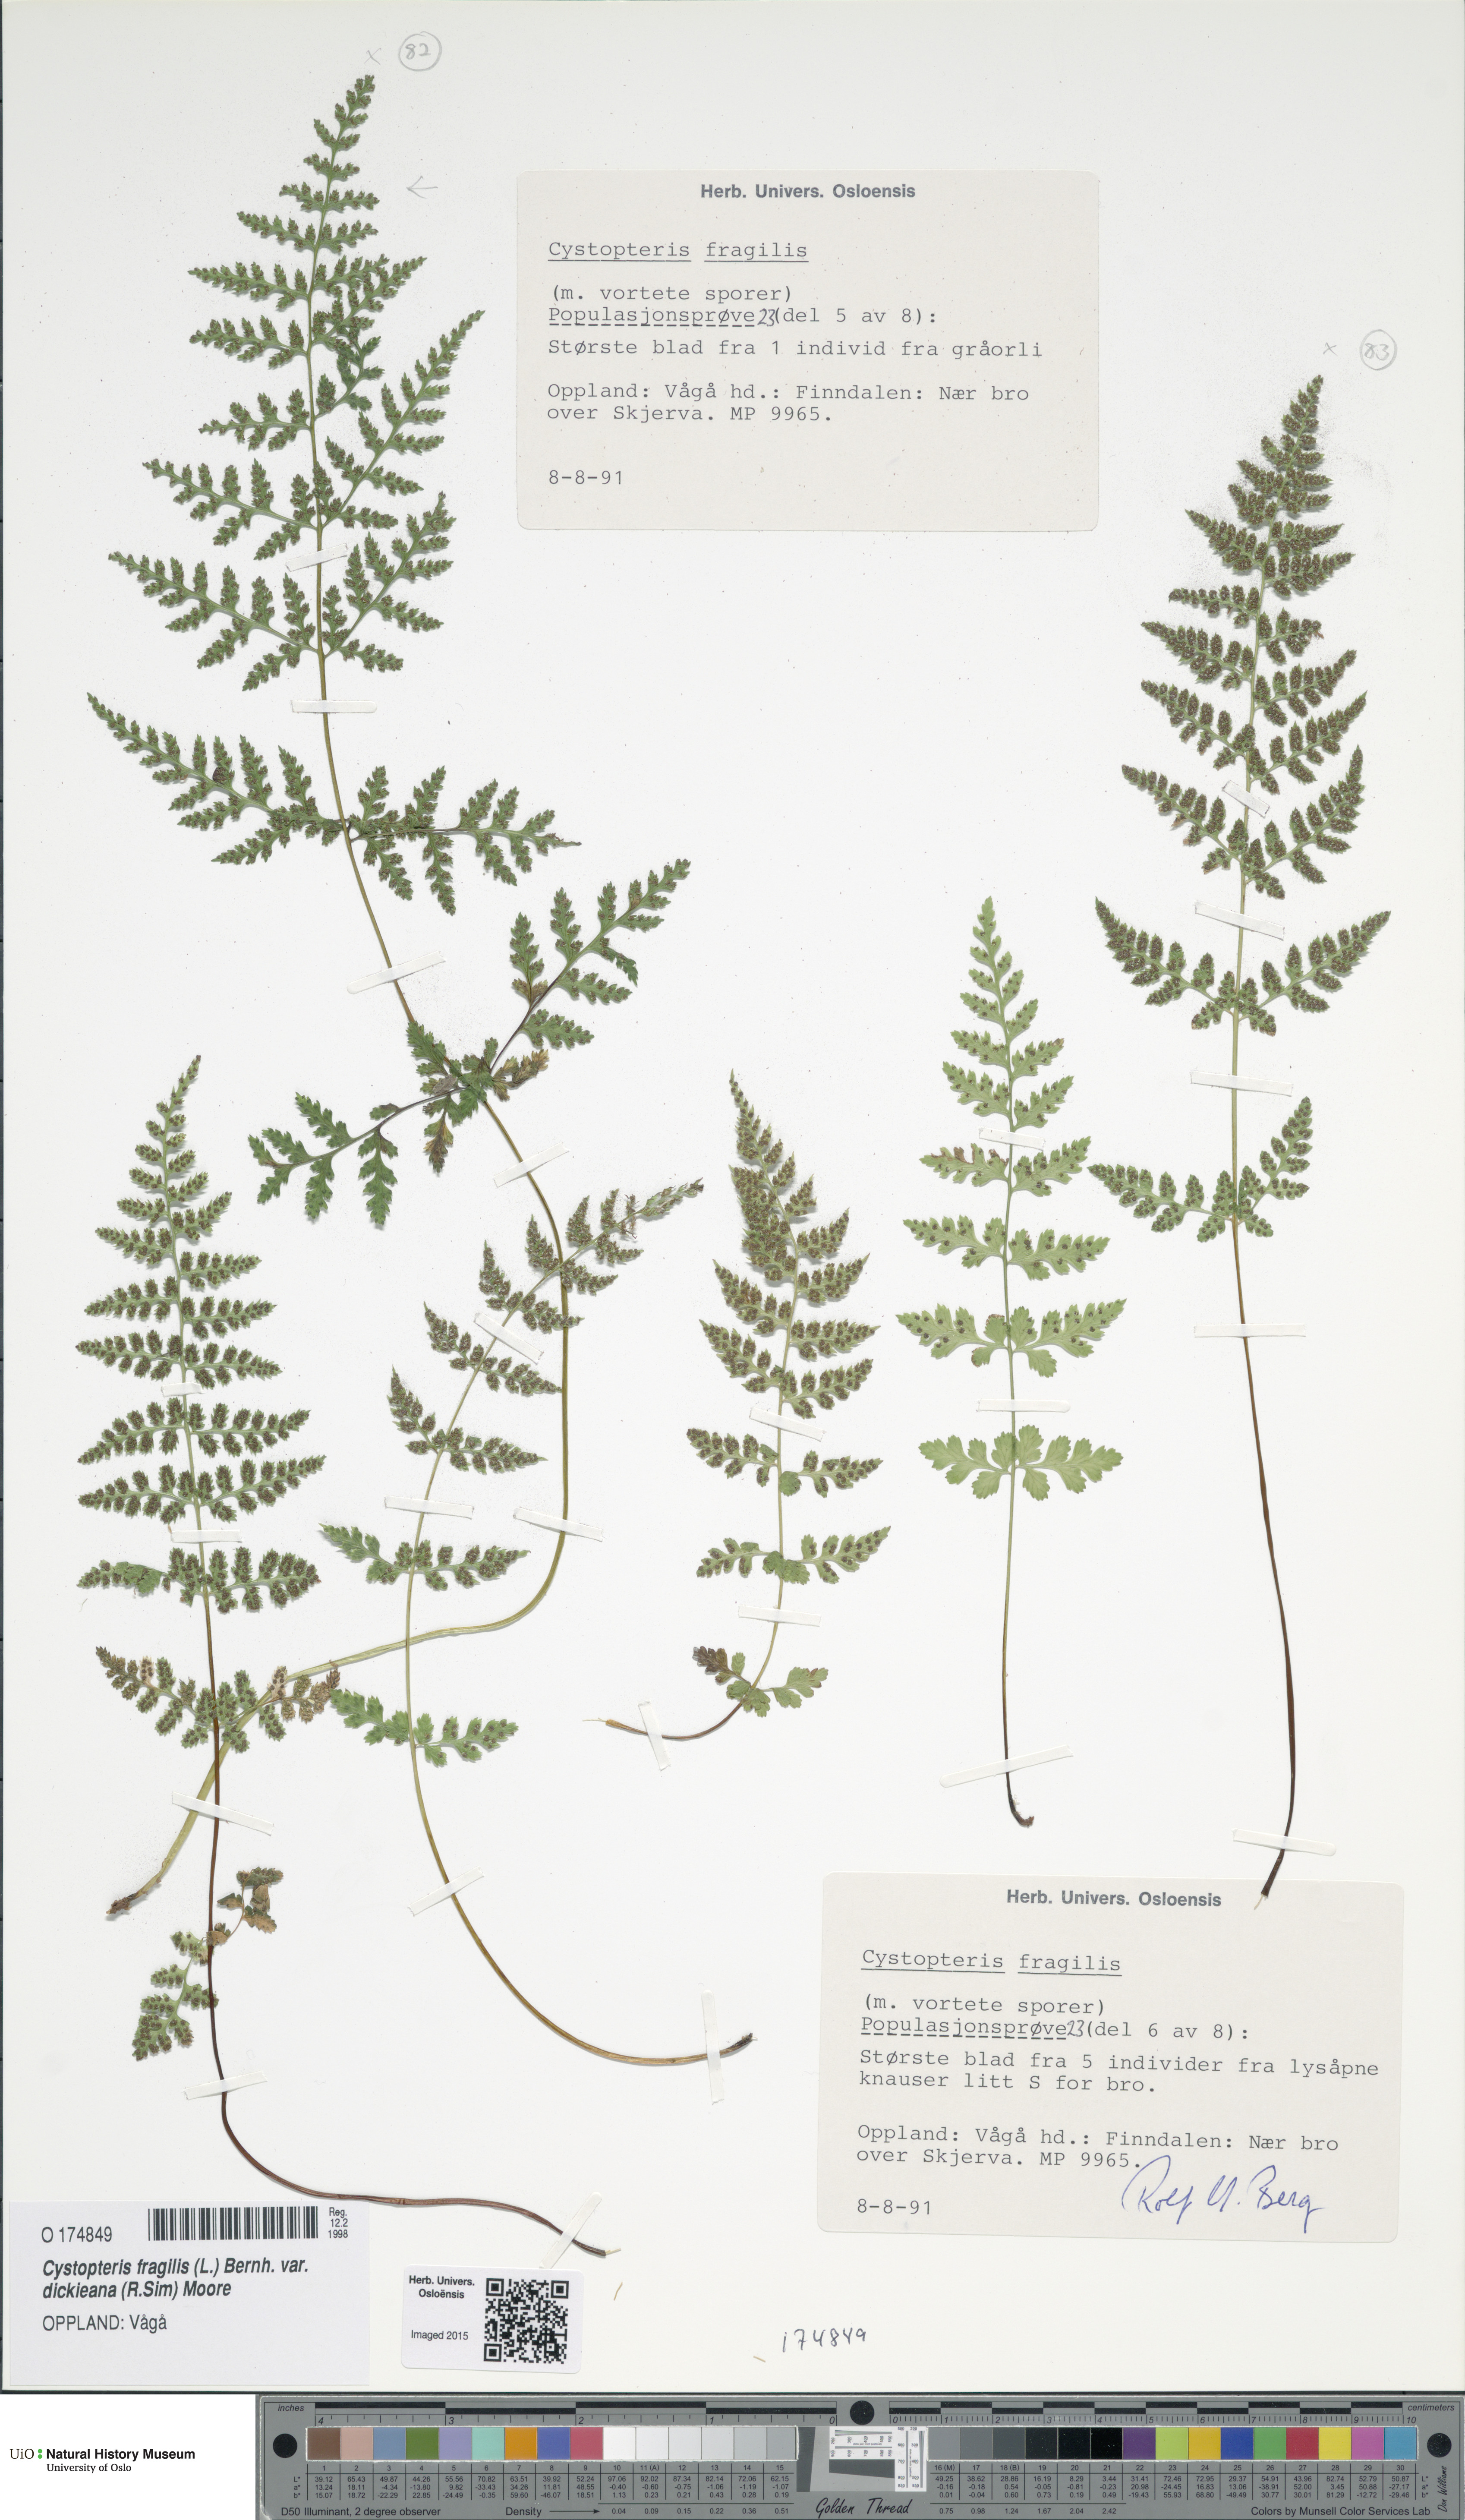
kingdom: Plantae
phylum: Tracheophyta
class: Polypodiopsida
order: Polypodiales
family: Cystopteridaceae
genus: Cystopteris
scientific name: Cystopteris dickieana
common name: Dickie's bladder-fern
